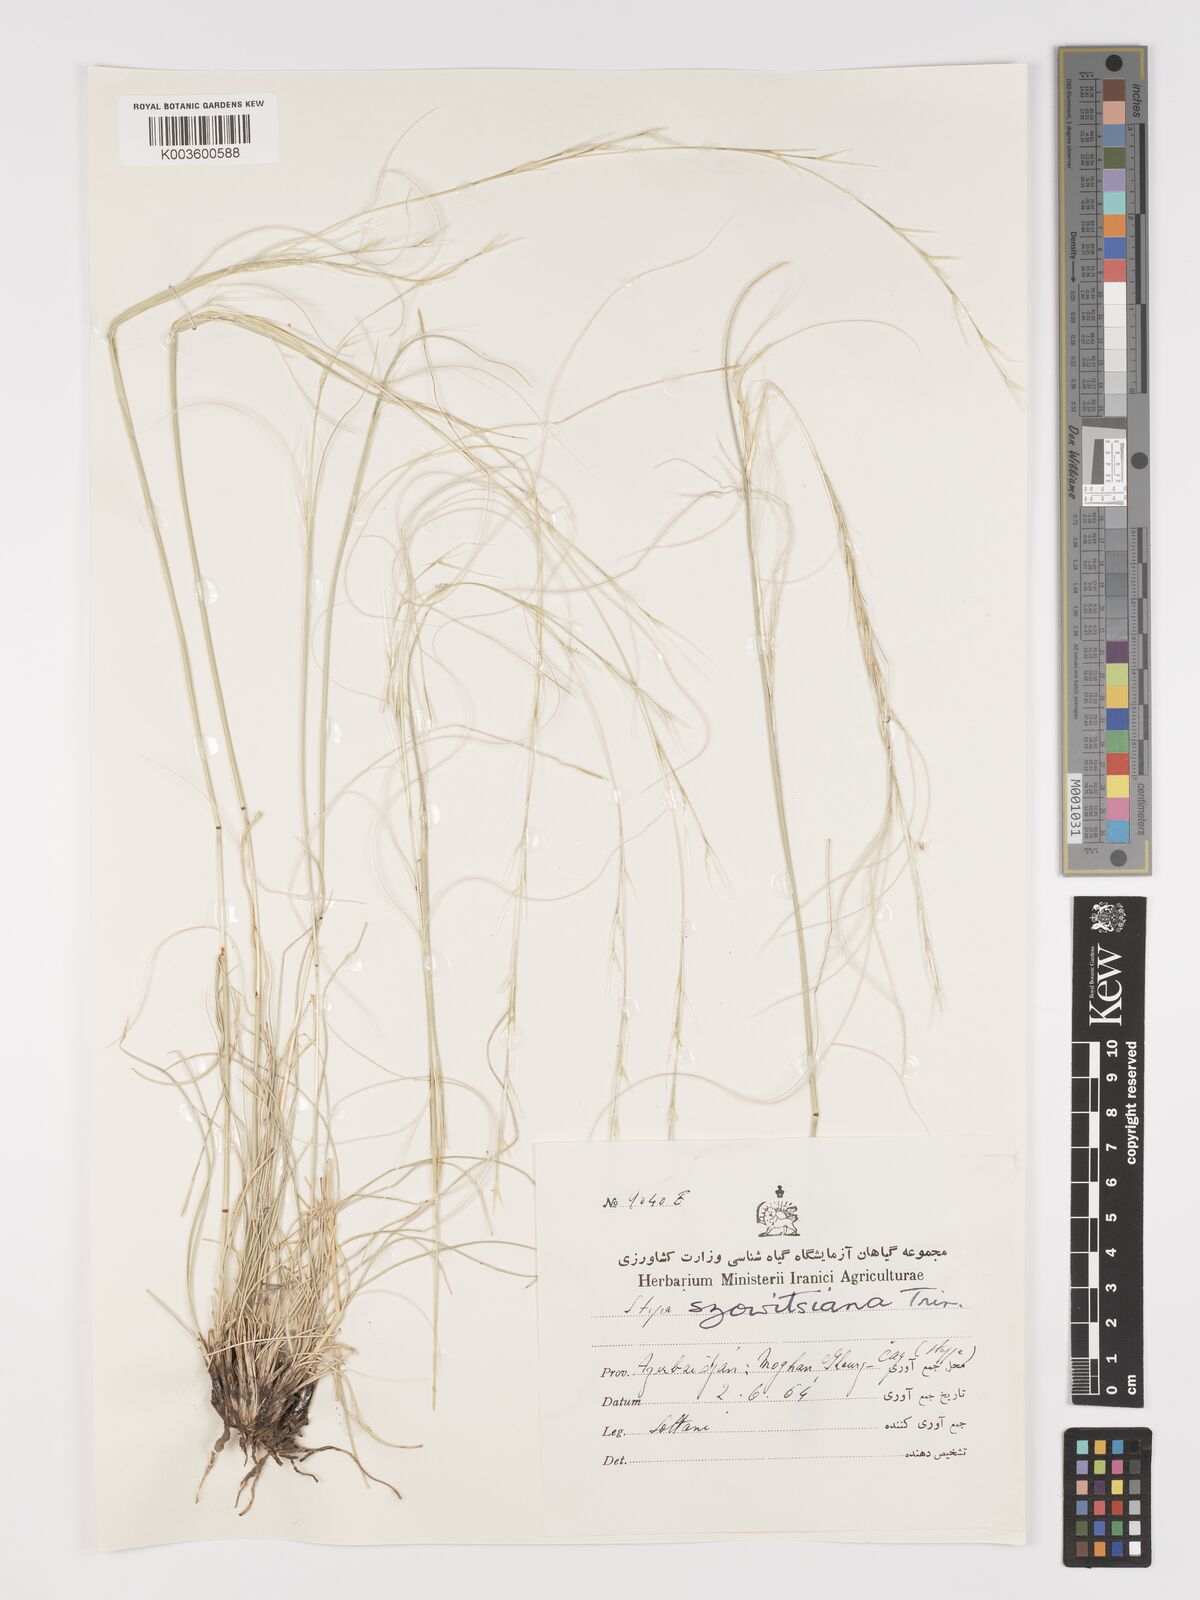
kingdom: Plantae
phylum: Tracheophyta
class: Liliopsida
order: Poales
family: Poaceae
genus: Stipa
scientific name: Stipa barbata
